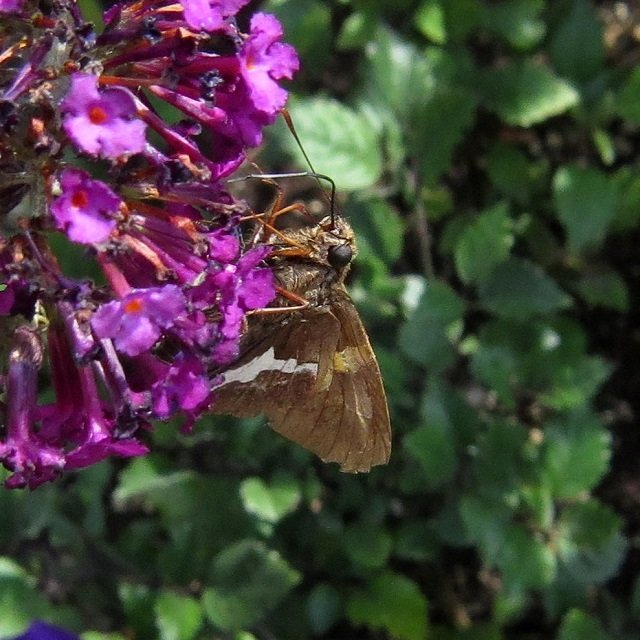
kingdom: Animalia
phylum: Arthropoda
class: Insecta
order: Lepidoptera
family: Hesperiidae
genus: Epargyreus
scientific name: Epargyreus clarus
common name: Silver-spotted Skipper
